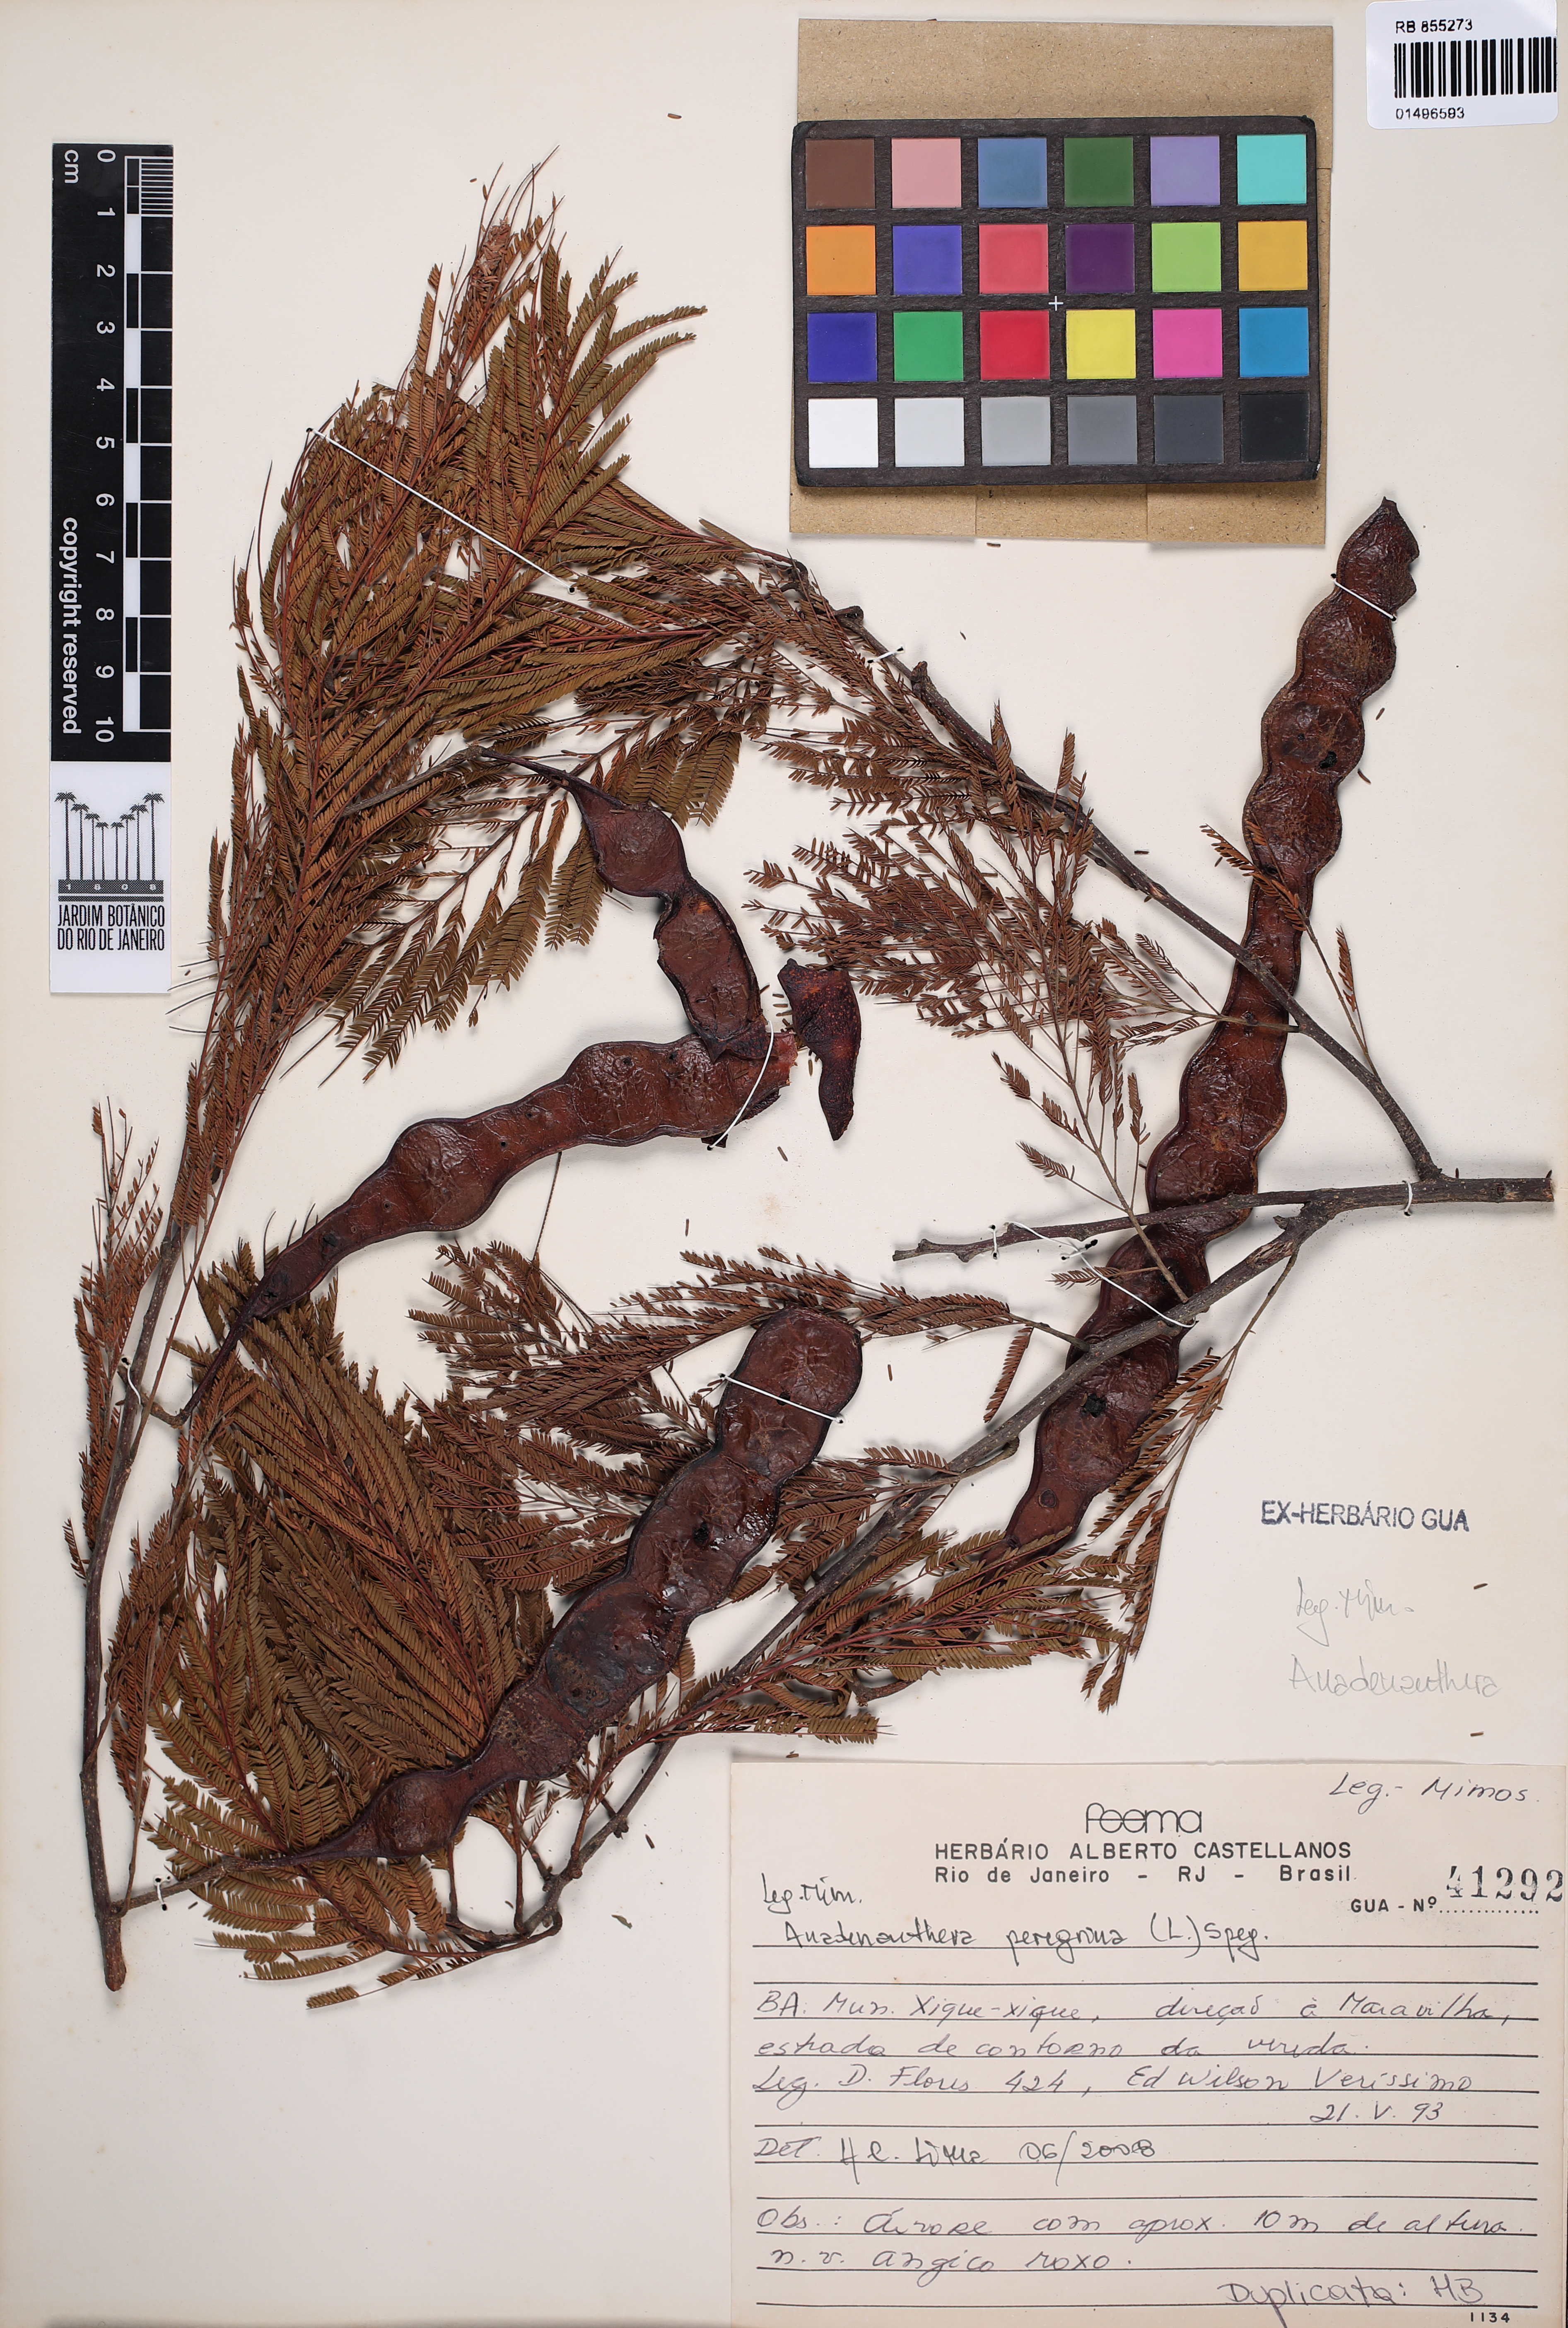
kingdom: Plantae
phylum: Tracheophyta
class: Magnoliopsida
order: Fabales
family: Fabaceae
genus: Anadenanthera
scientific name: Anadenanthera peregrina
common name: Cohoba
